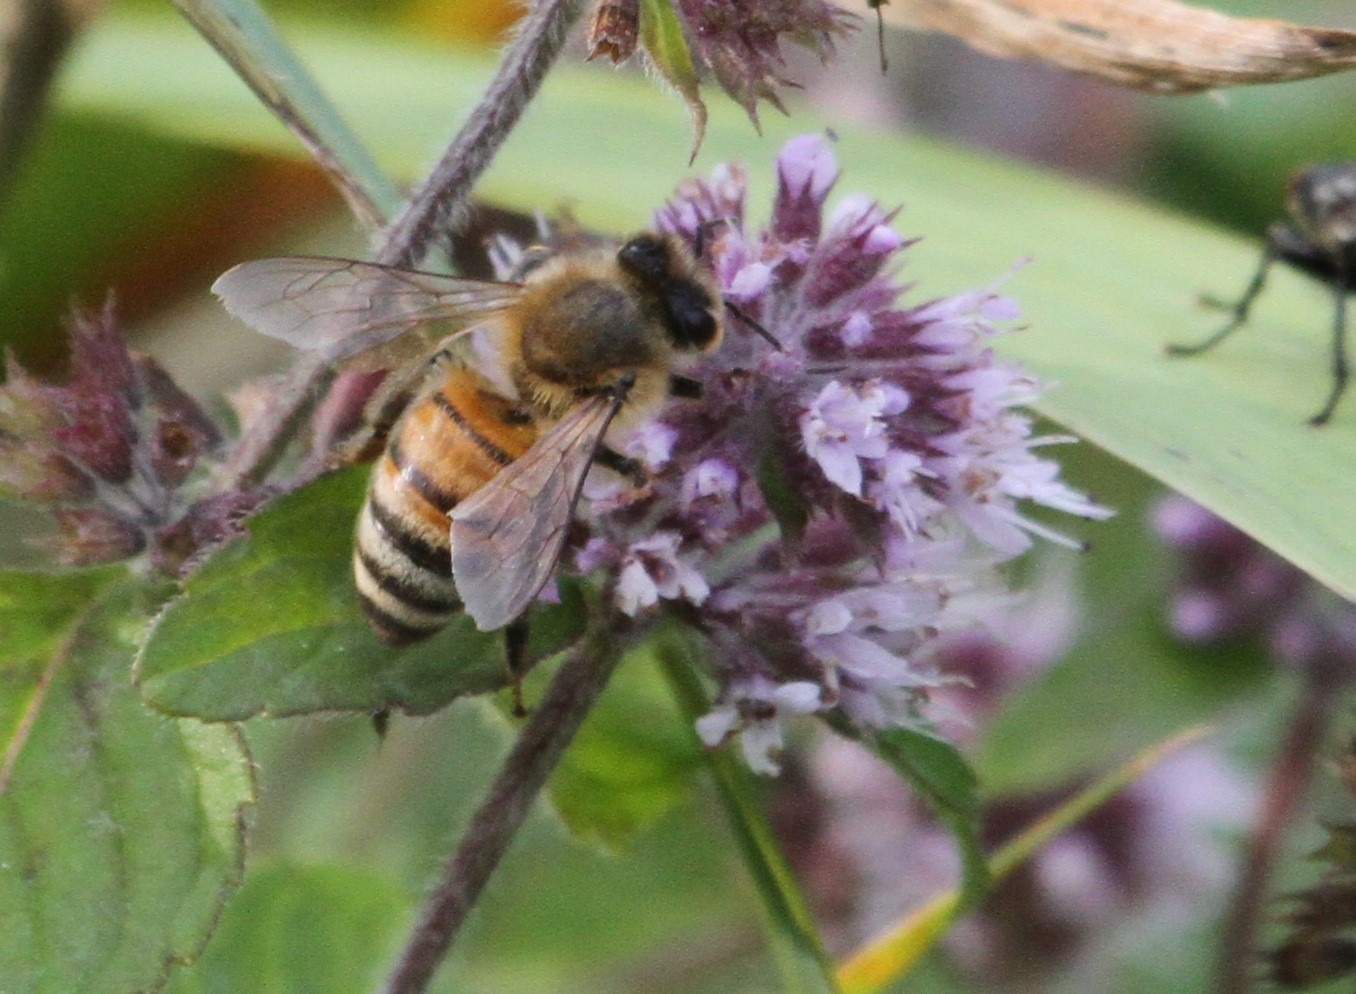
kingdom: Animalia
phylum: Arthropoda
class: Insecta
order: Hymenoptera
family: Apidae
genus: Apis
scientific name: Apis mellifera
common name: Honningbi
